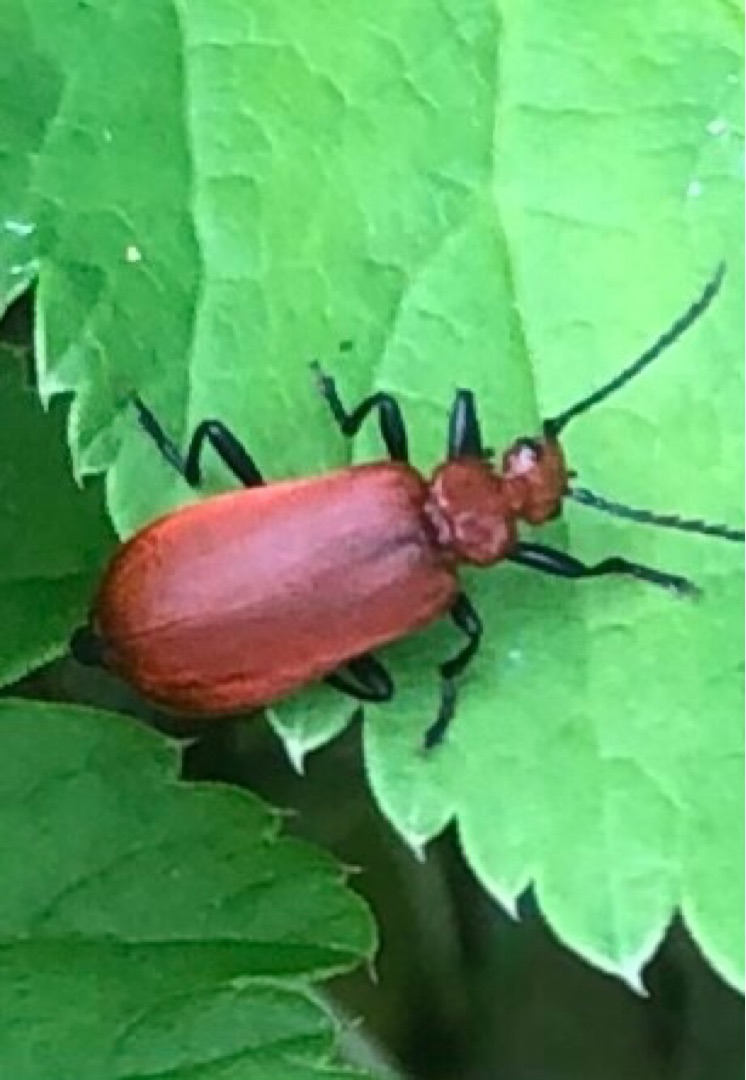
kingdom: Animalia
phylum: Arthropoda
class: Insecta
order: Coleoptera
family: Pyrochroidae
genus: Schizotus
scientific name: Schizotus pectinicornis
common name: Lille kardinalbille
